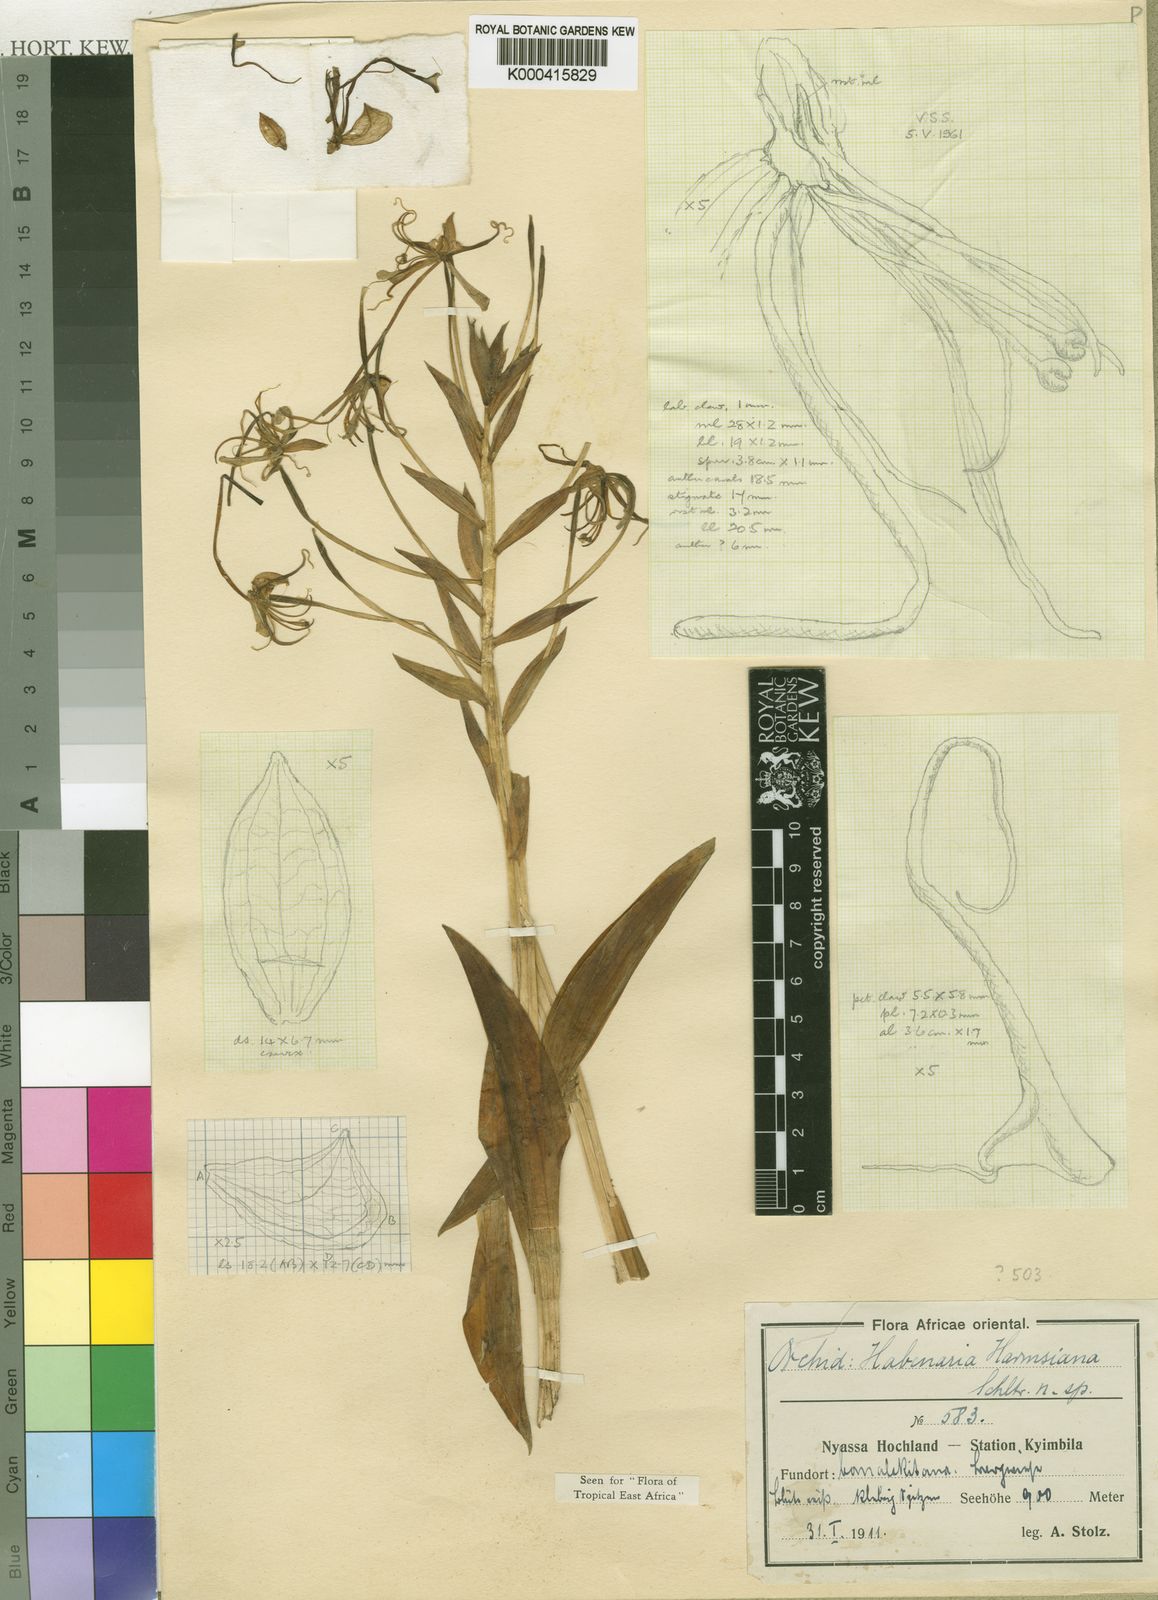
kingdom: Plantae
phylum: Tracheophyta
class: Liliopsida
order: Asparagales
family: Orchidaceae
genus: Habenaria
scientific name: Habenaria harmsiana
